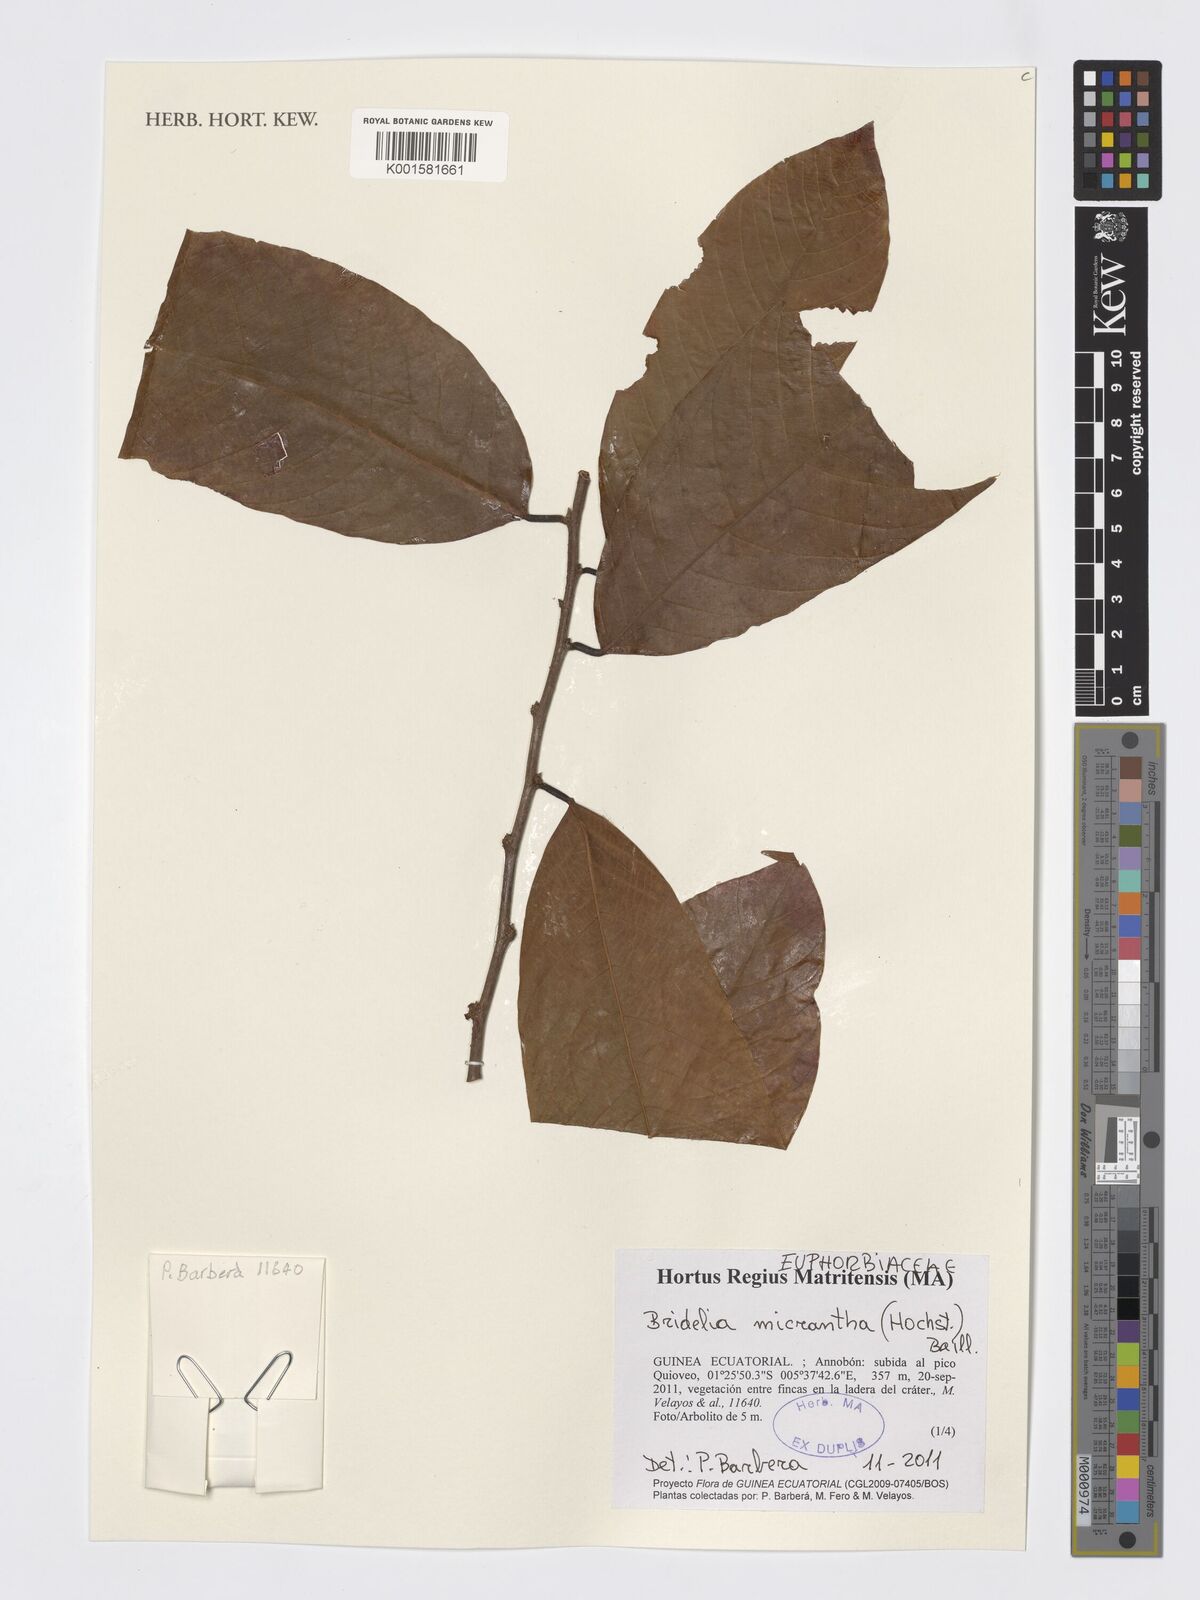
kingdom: Plantae
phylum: Tracheophyta
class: Magnoliopsida
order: Malpighiales
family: Phyllanthaceae
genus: Bridelia
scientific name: Bridelia micrantha
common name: Bridelia
